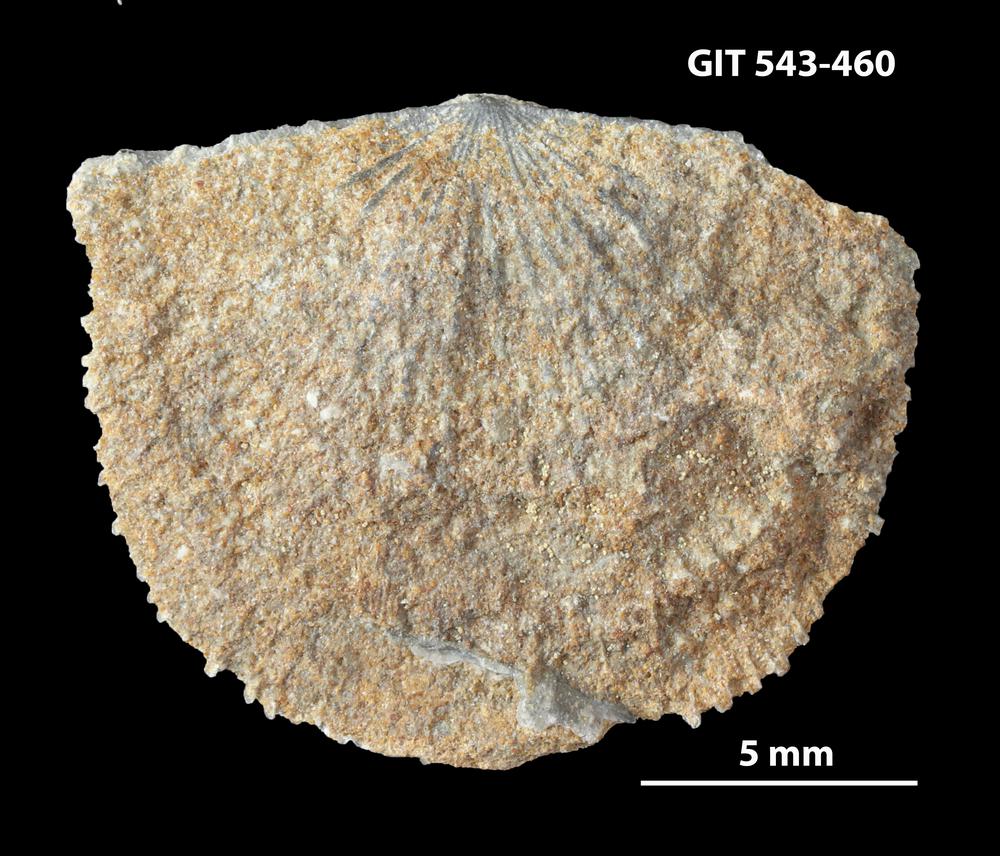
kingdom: Animalia
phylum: Brachiopoda
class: Rhynchonellata
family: Clitambonitidae
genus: Clitambonites
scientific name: Clitambonites
